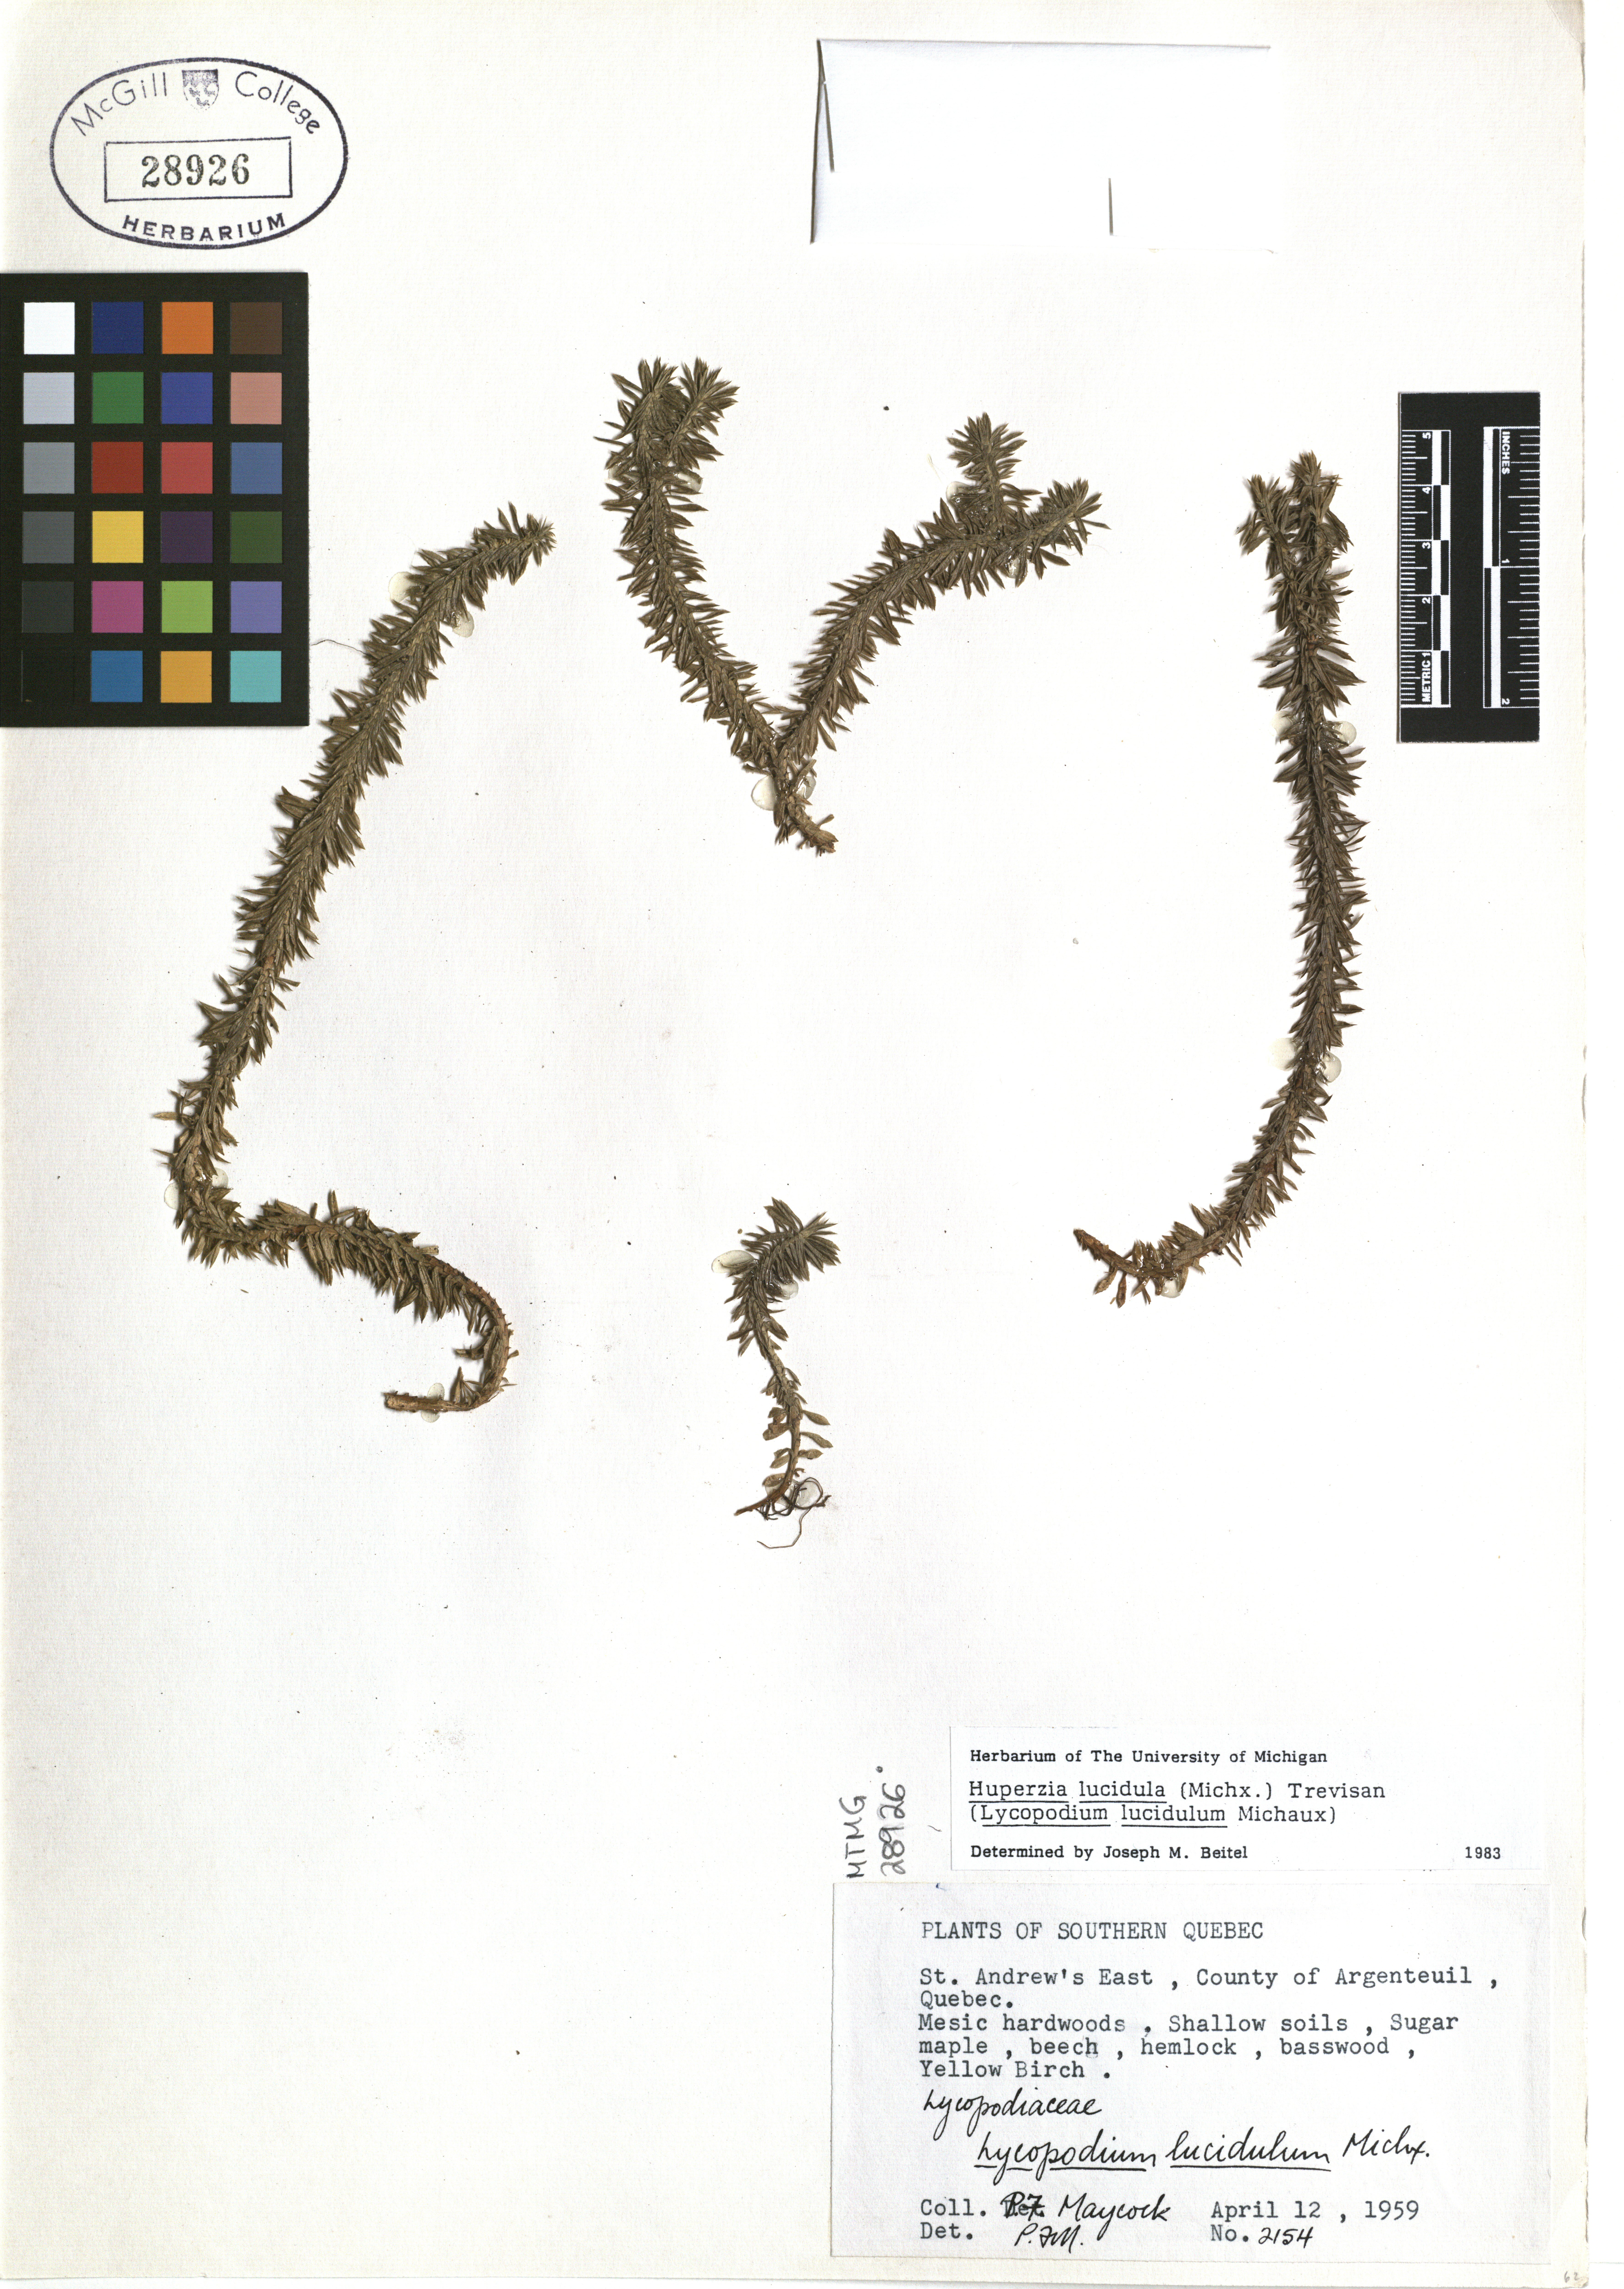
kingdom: Plantae
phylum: Tracheophyta
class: Lycopodiopsida
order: Lycopodiales
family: Lycopodiaceae
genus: Huperzia
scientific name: Huperzia lucidula
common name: Shining clubmoss
